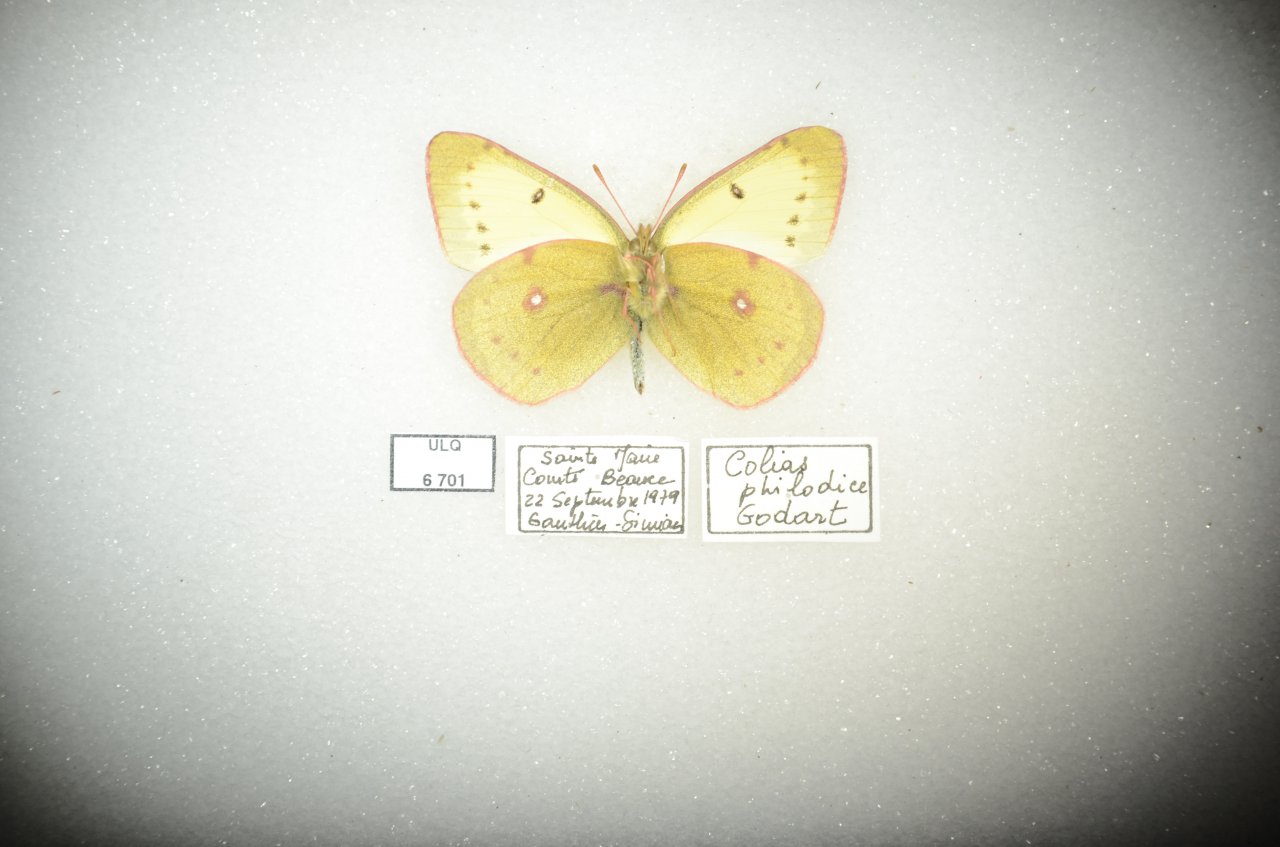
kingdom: Animalia
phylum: Arthropoda
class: Insecta
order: Lepidoptera
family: Pieridae
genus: Colias
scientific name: Colias philodice
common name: Clouded Sulphur
